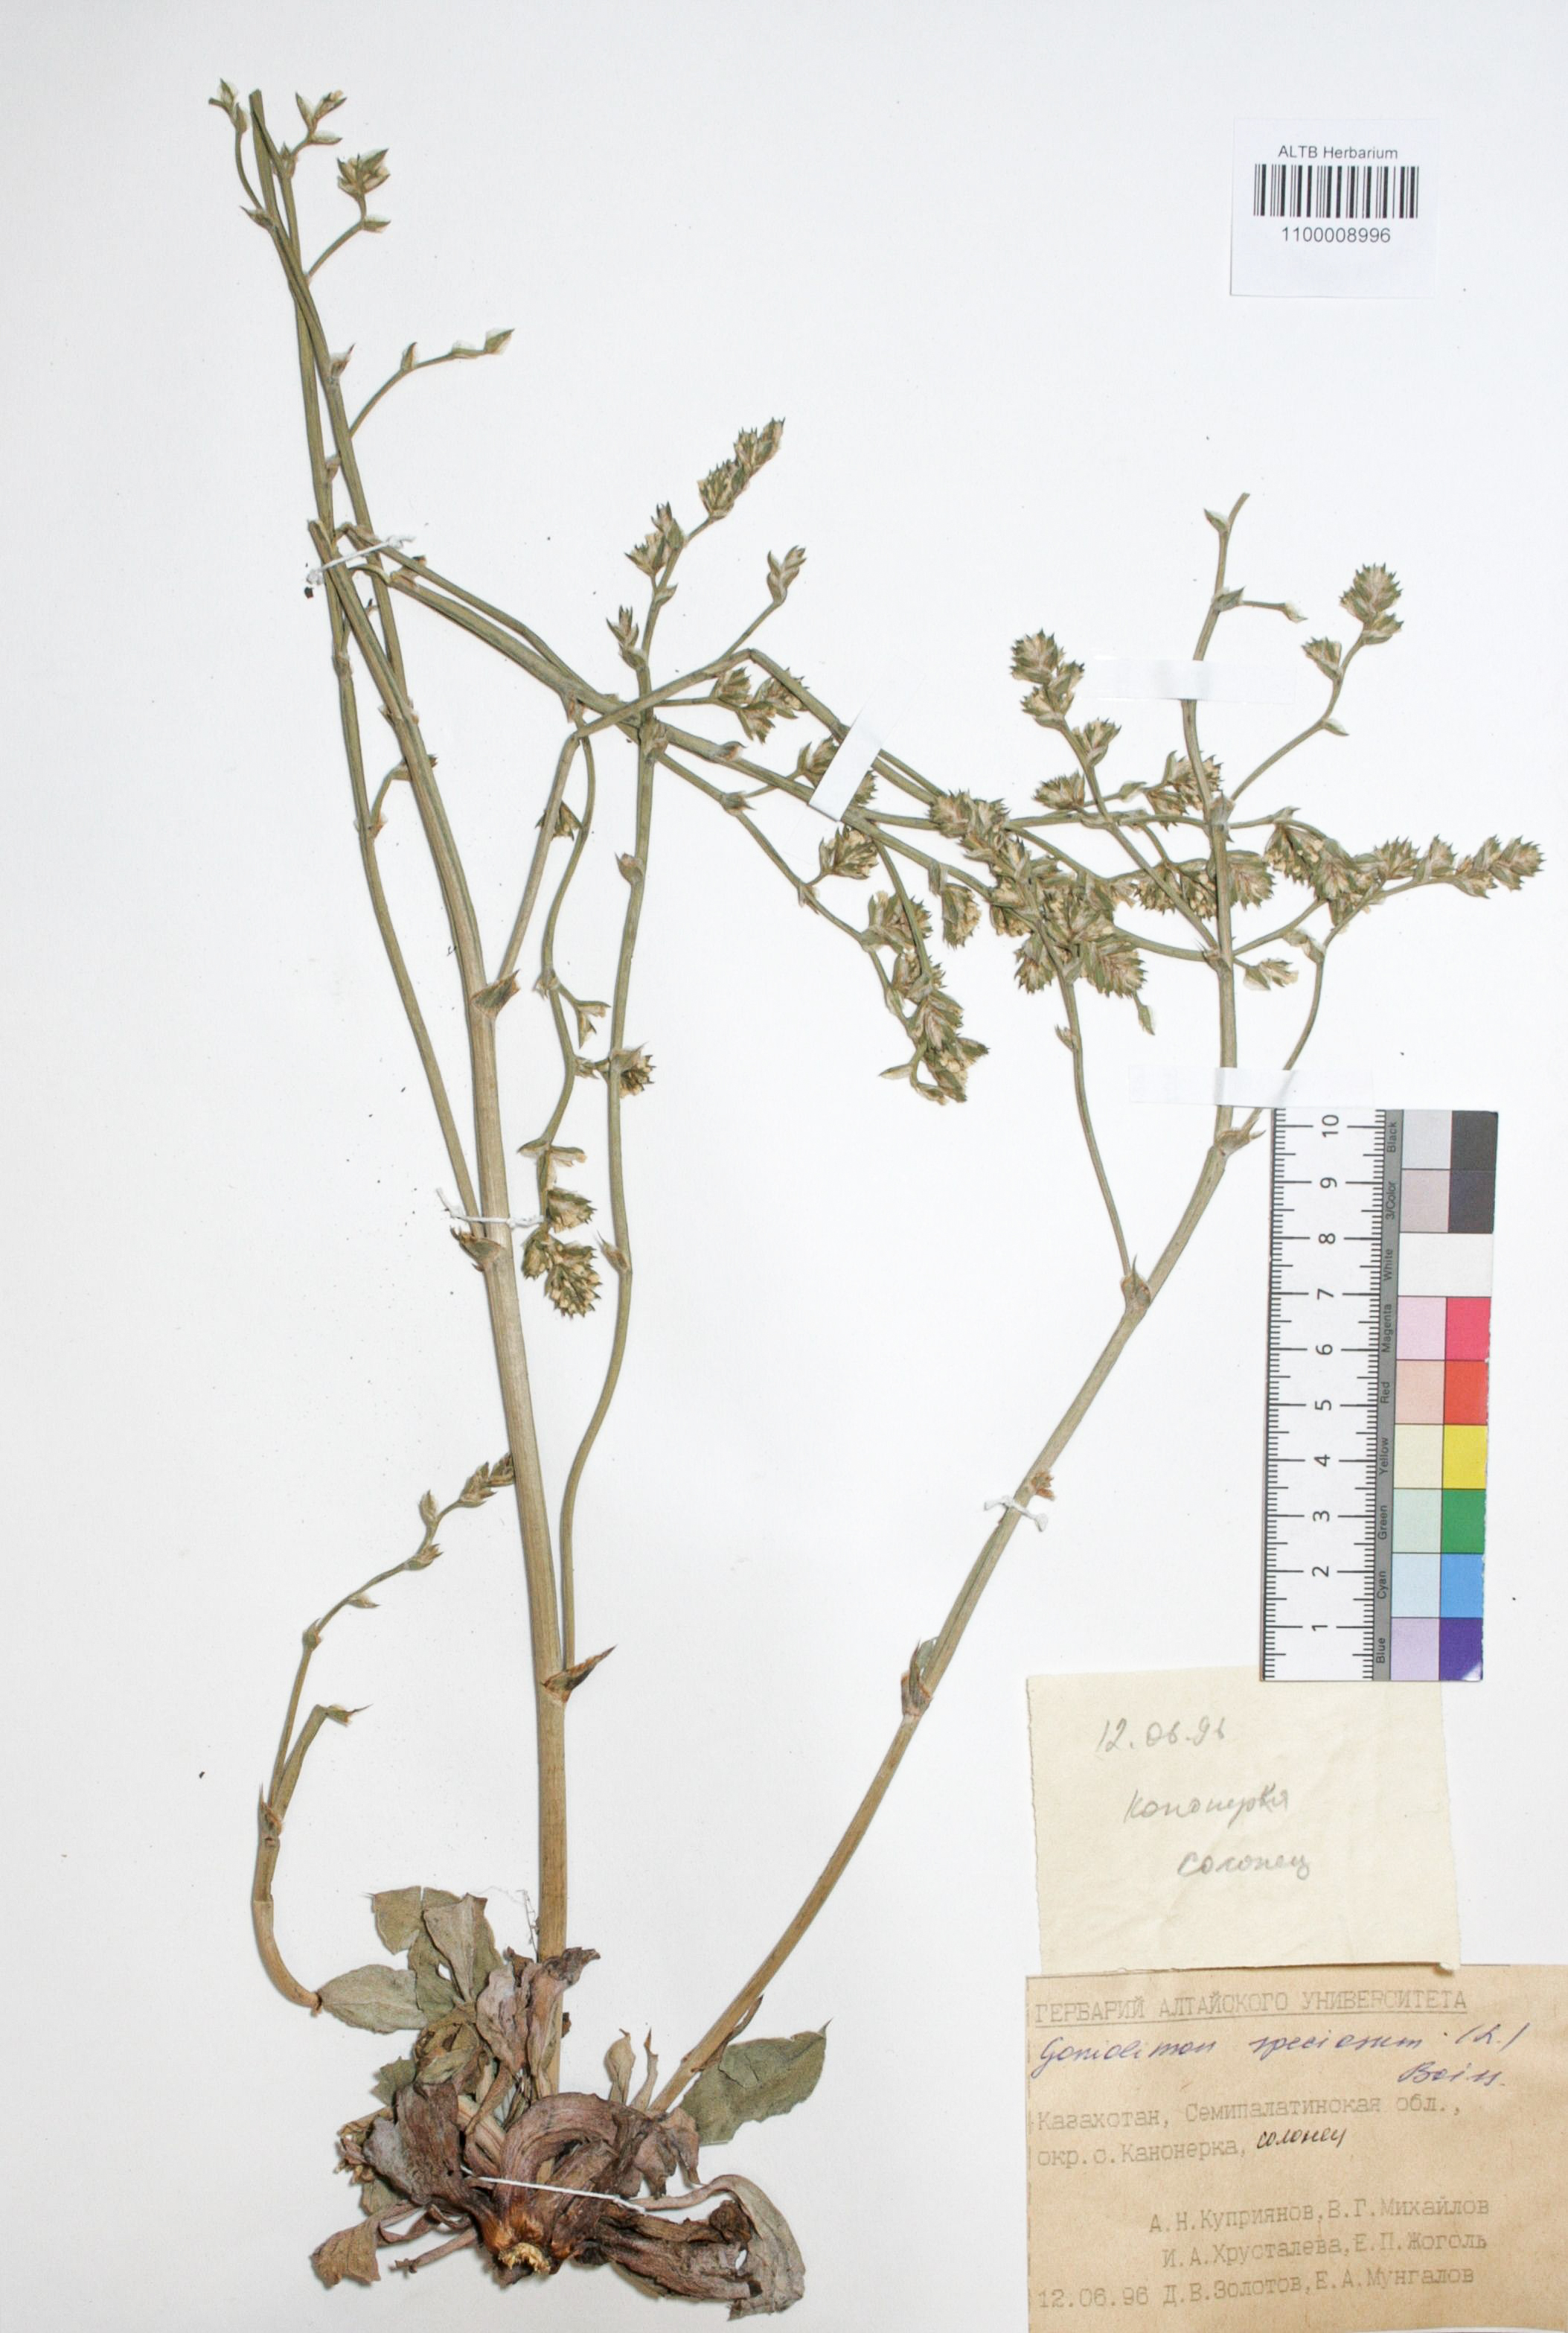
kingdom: Plantae
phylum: Tracheophyta
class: Magnoliopsida
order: Caryophyllales
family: Plumbaginaceae
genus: Goniolimon
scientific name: Goniolimon speciosum
